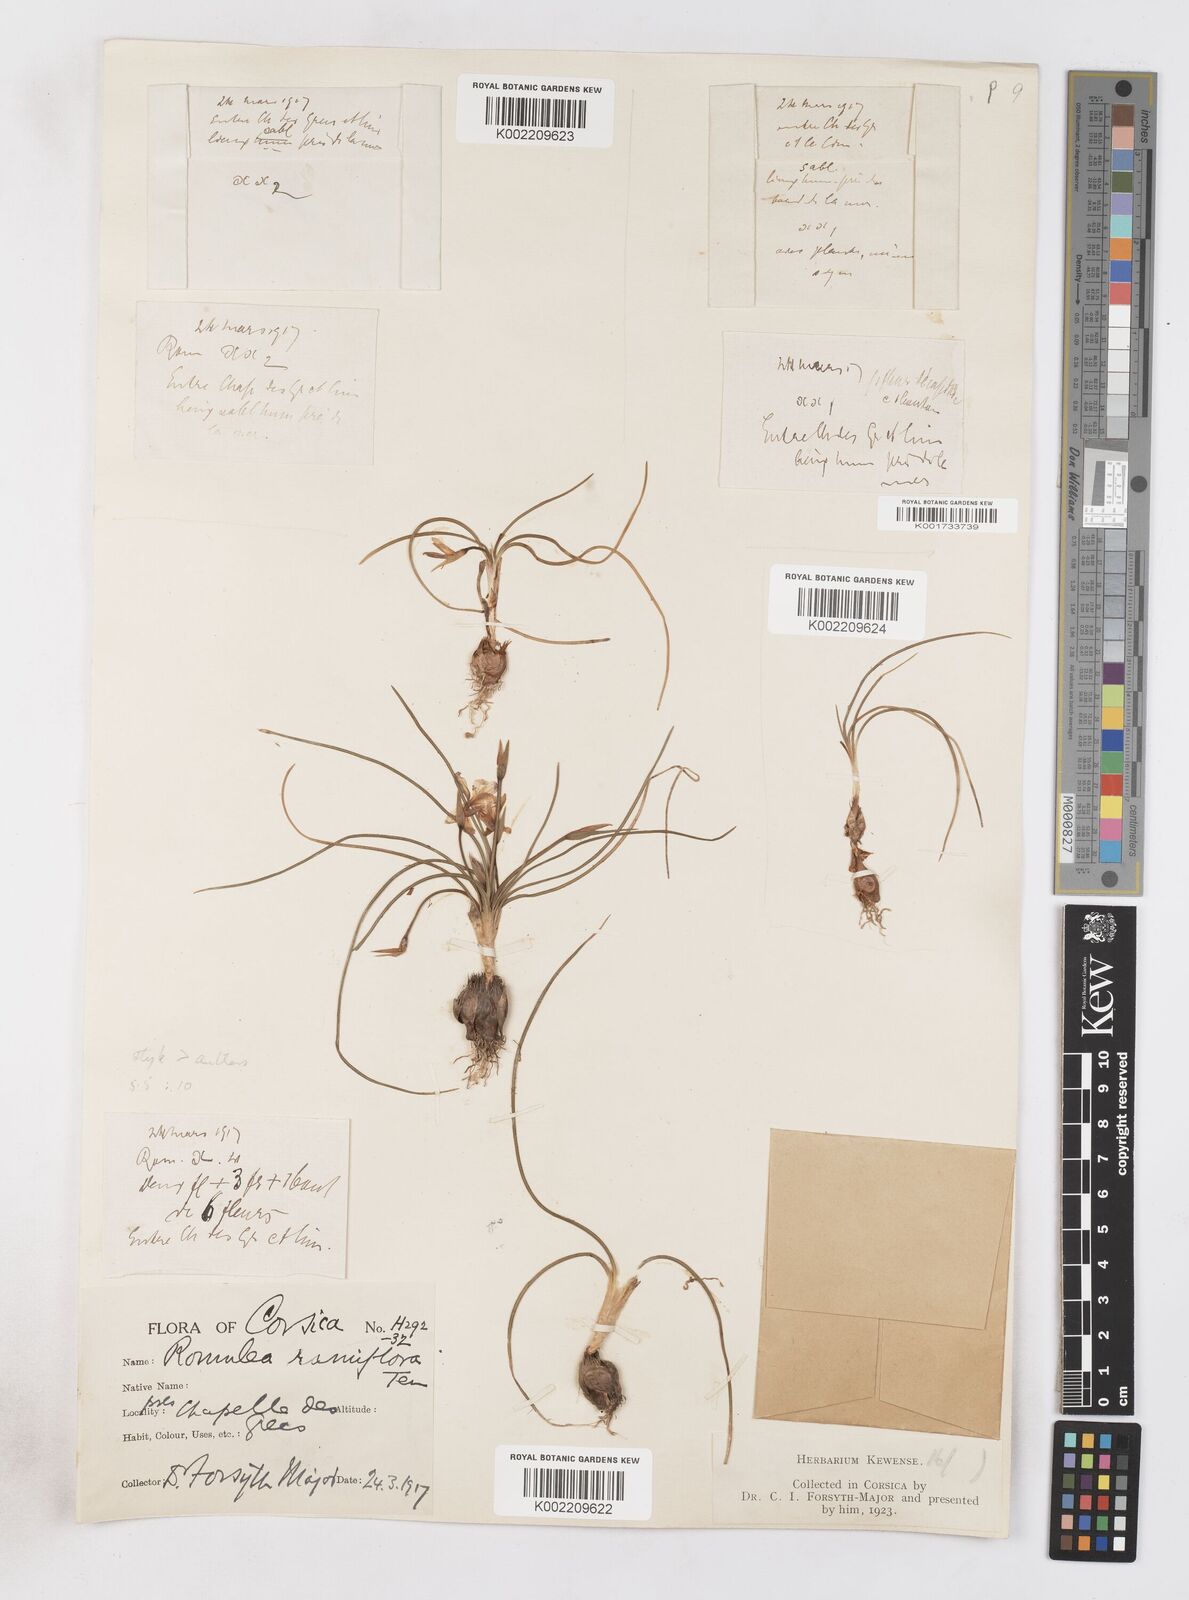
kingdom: Plantae
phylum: Tracheophyta
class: Liliopsida
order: Asparagales
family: Iridaceae
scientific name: Iridaceae
